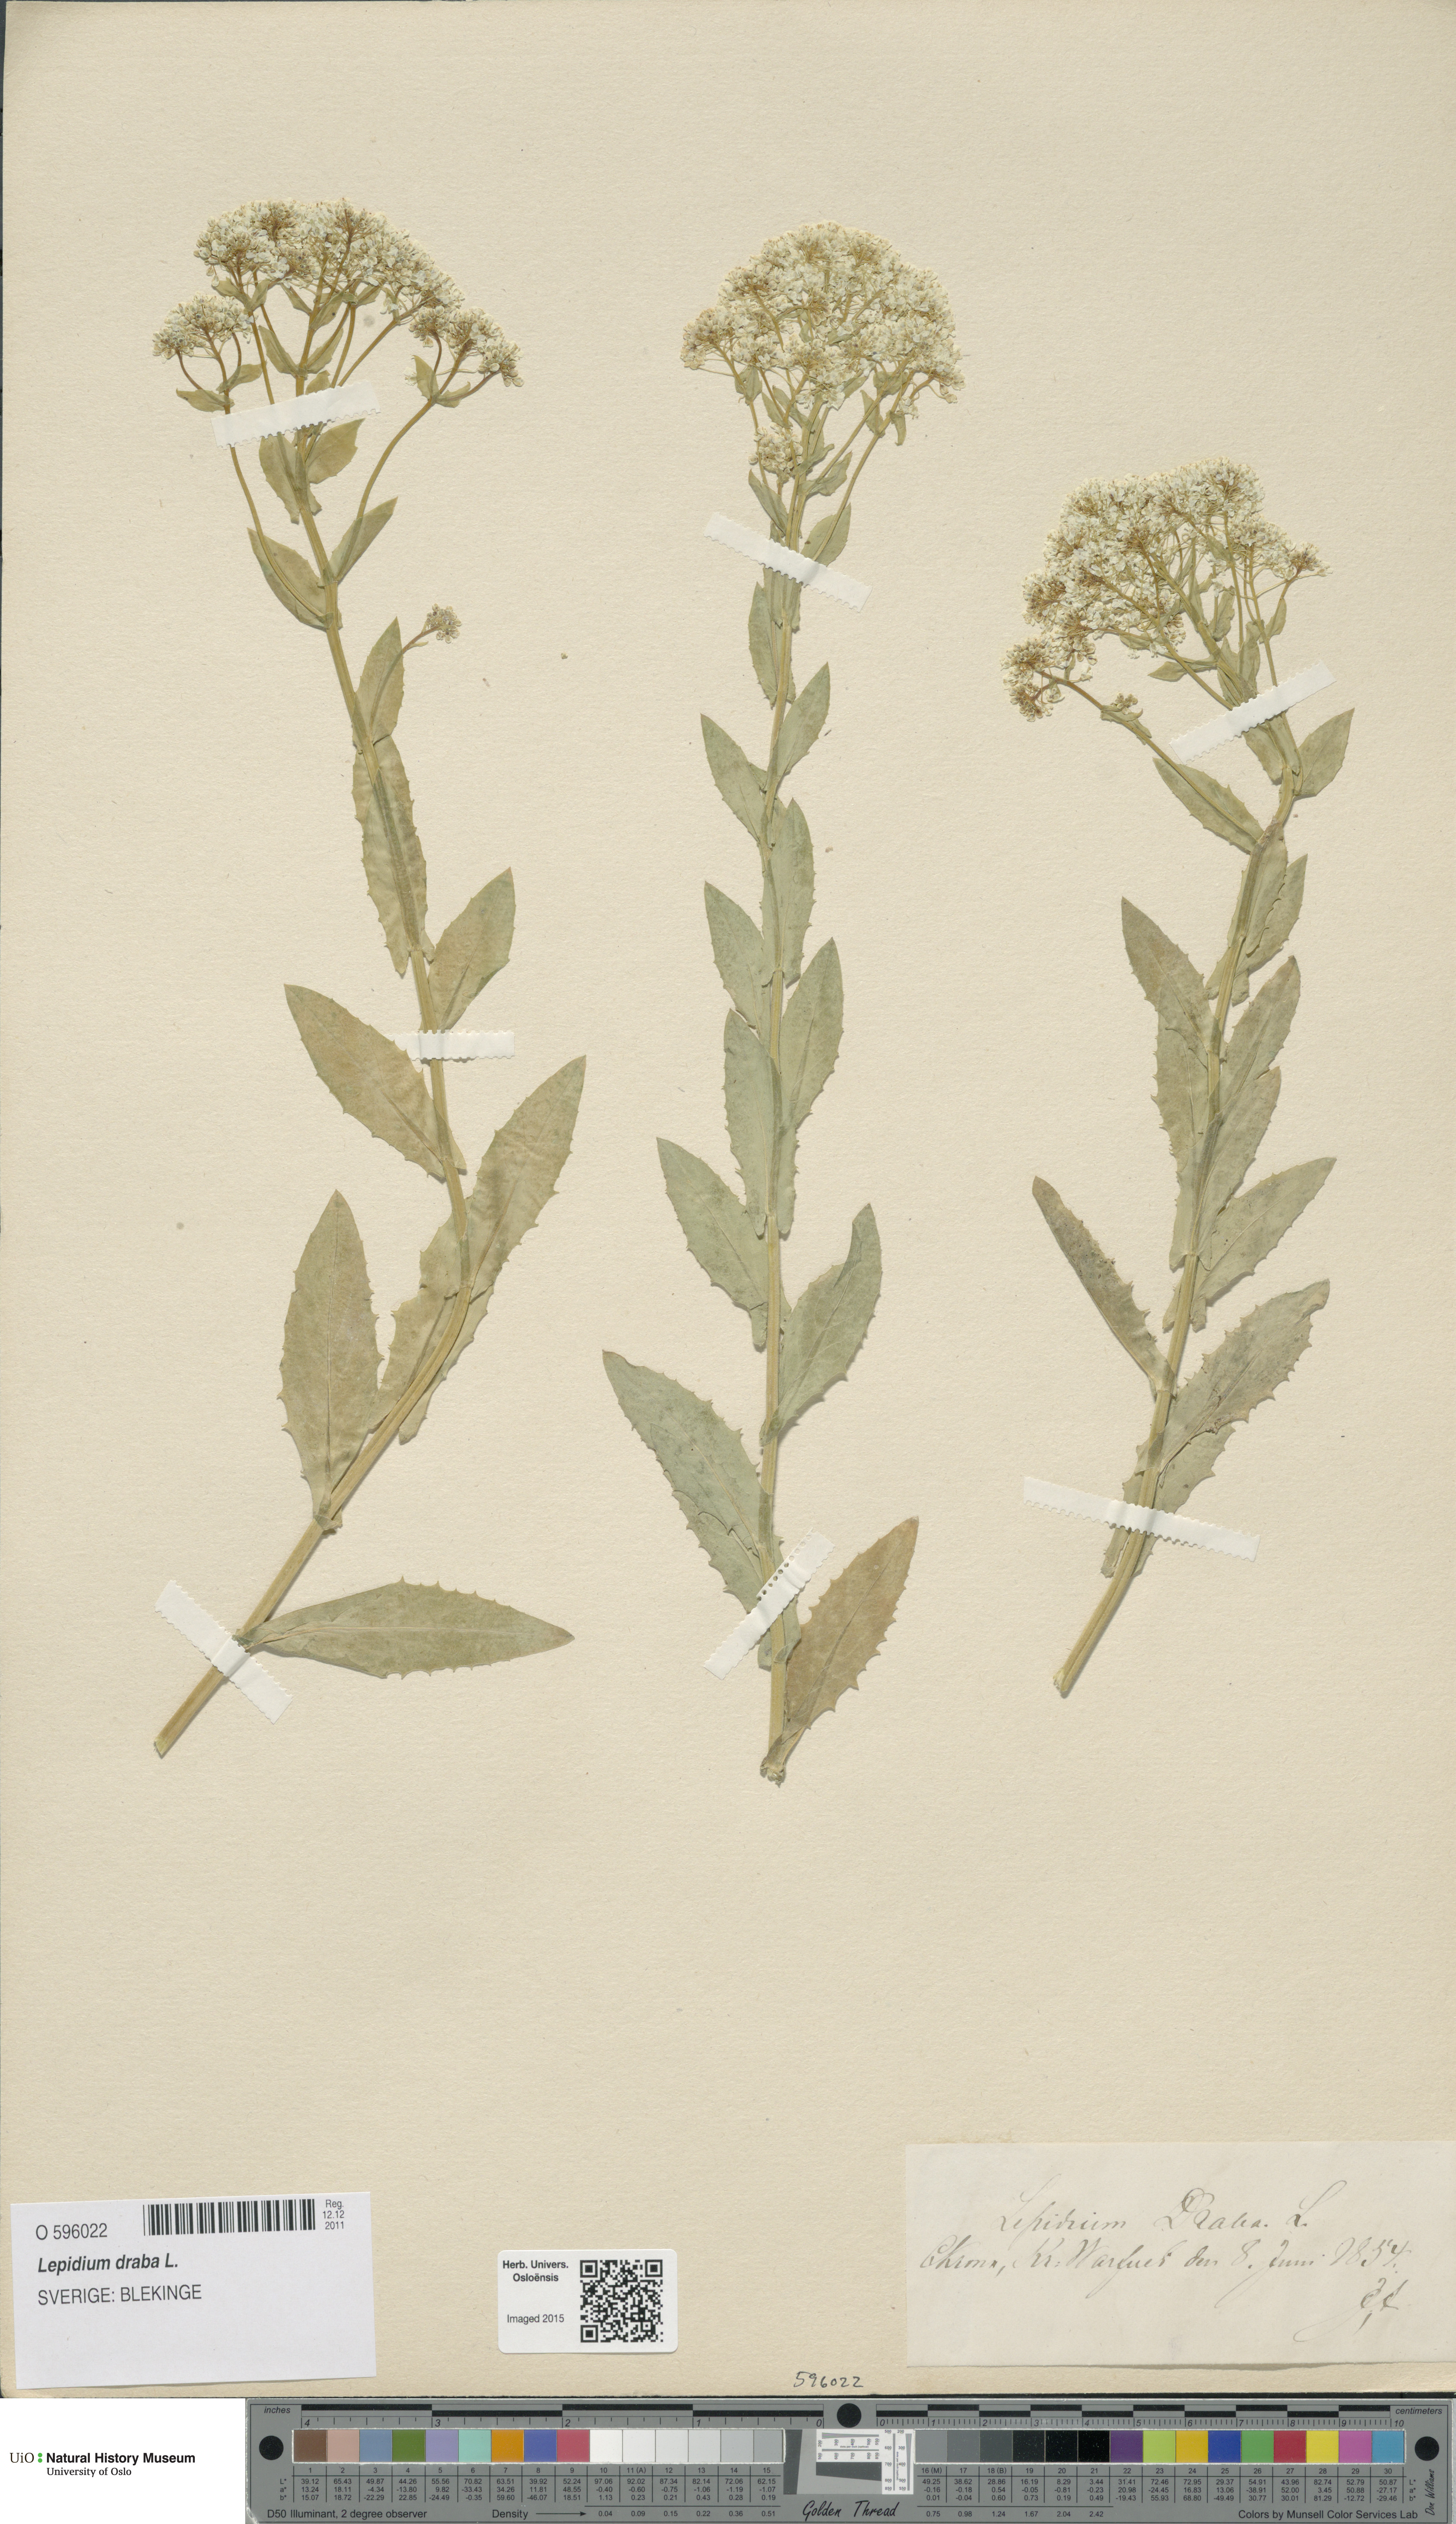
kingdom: Plantae
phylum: Tracheophyta
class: Magnoliopsida
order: Brassicales
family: Brassicaceae
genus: Lepidium
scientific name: Lepidium draba
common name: Hoary cress
